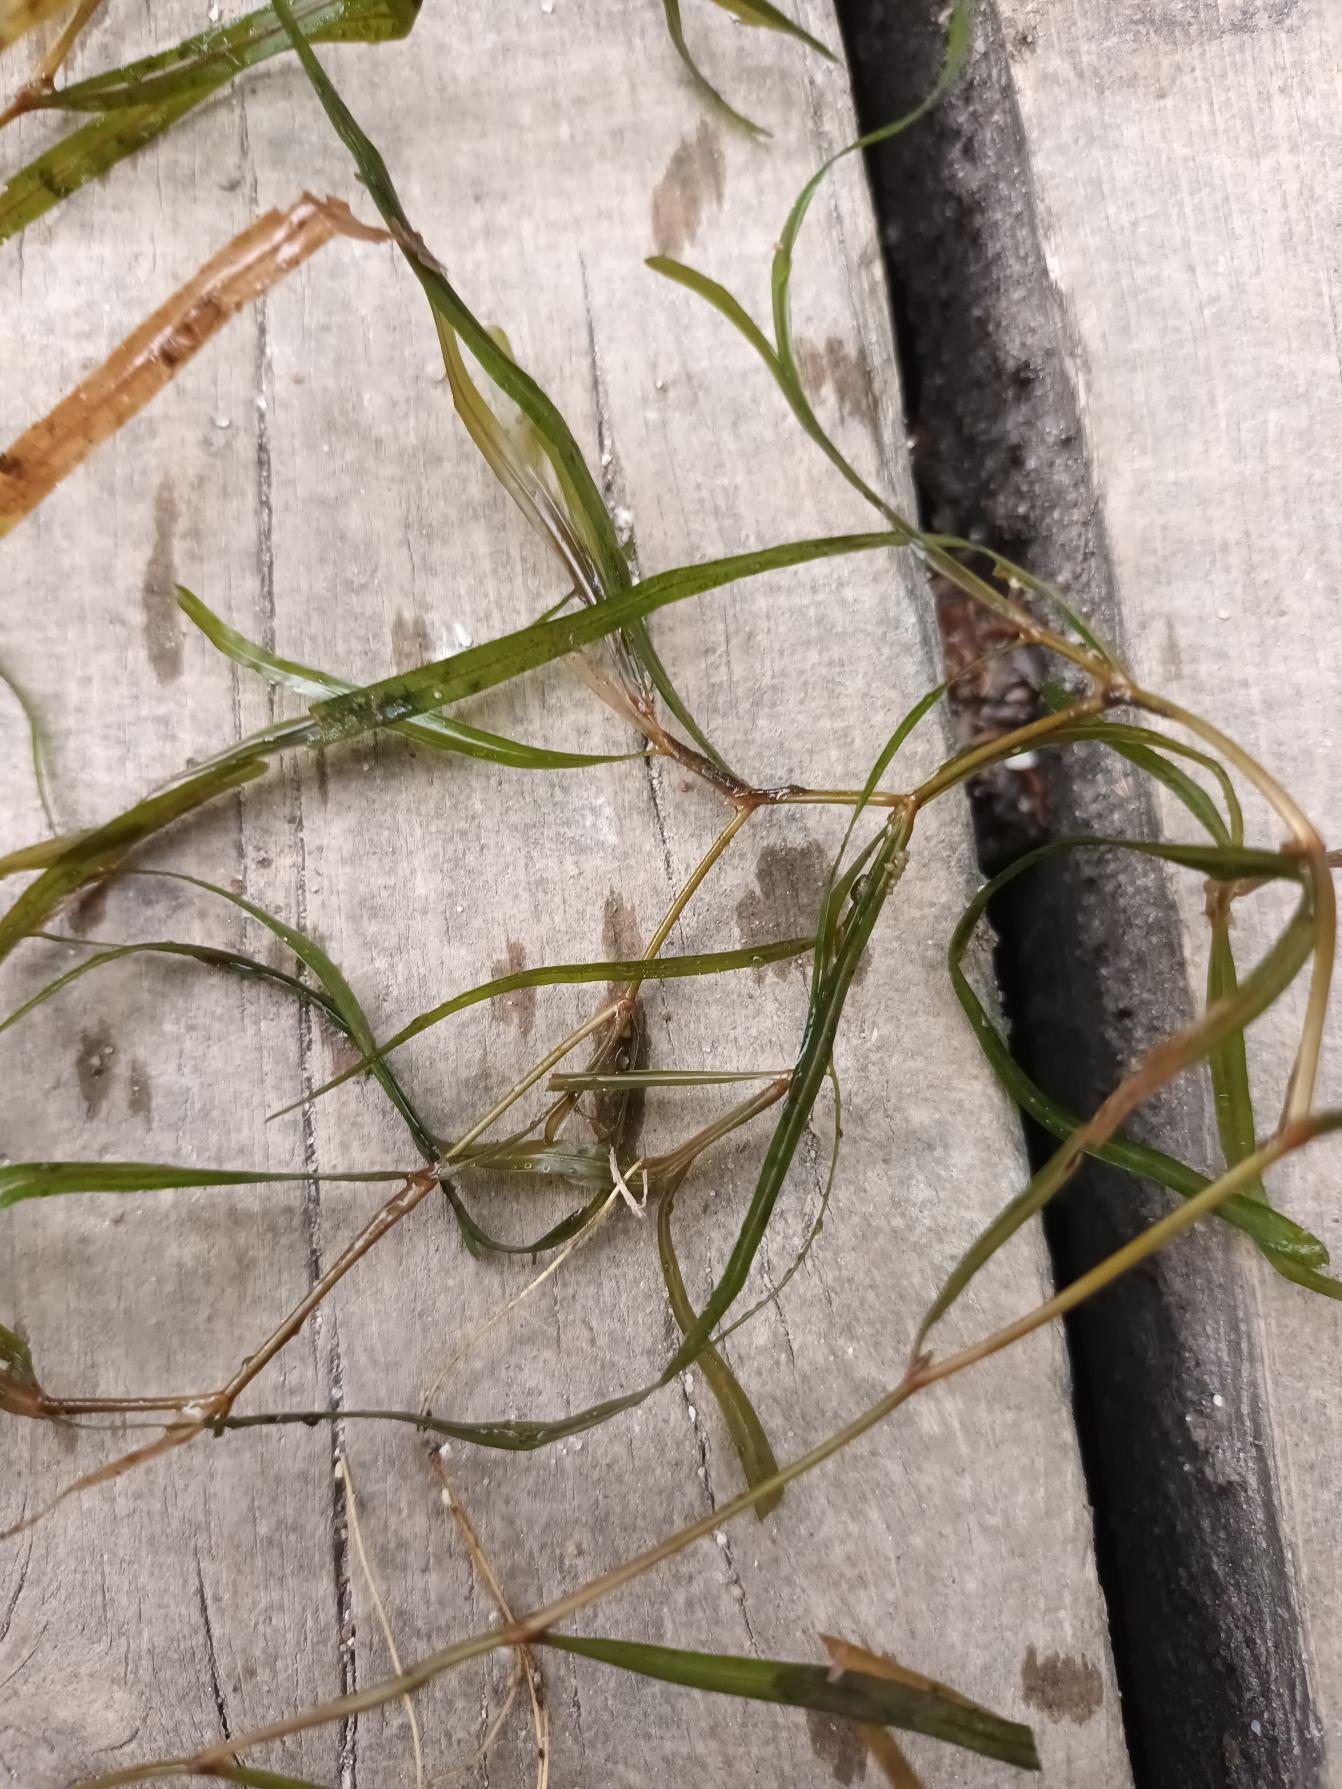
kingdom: Plantae
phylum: Tracheophyta
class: Liliopsida
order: Alismatales
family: Potamogetonaceae
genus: Potamogeton
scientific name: Potamogeton obtusifolius
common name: Butbladet vandaks
